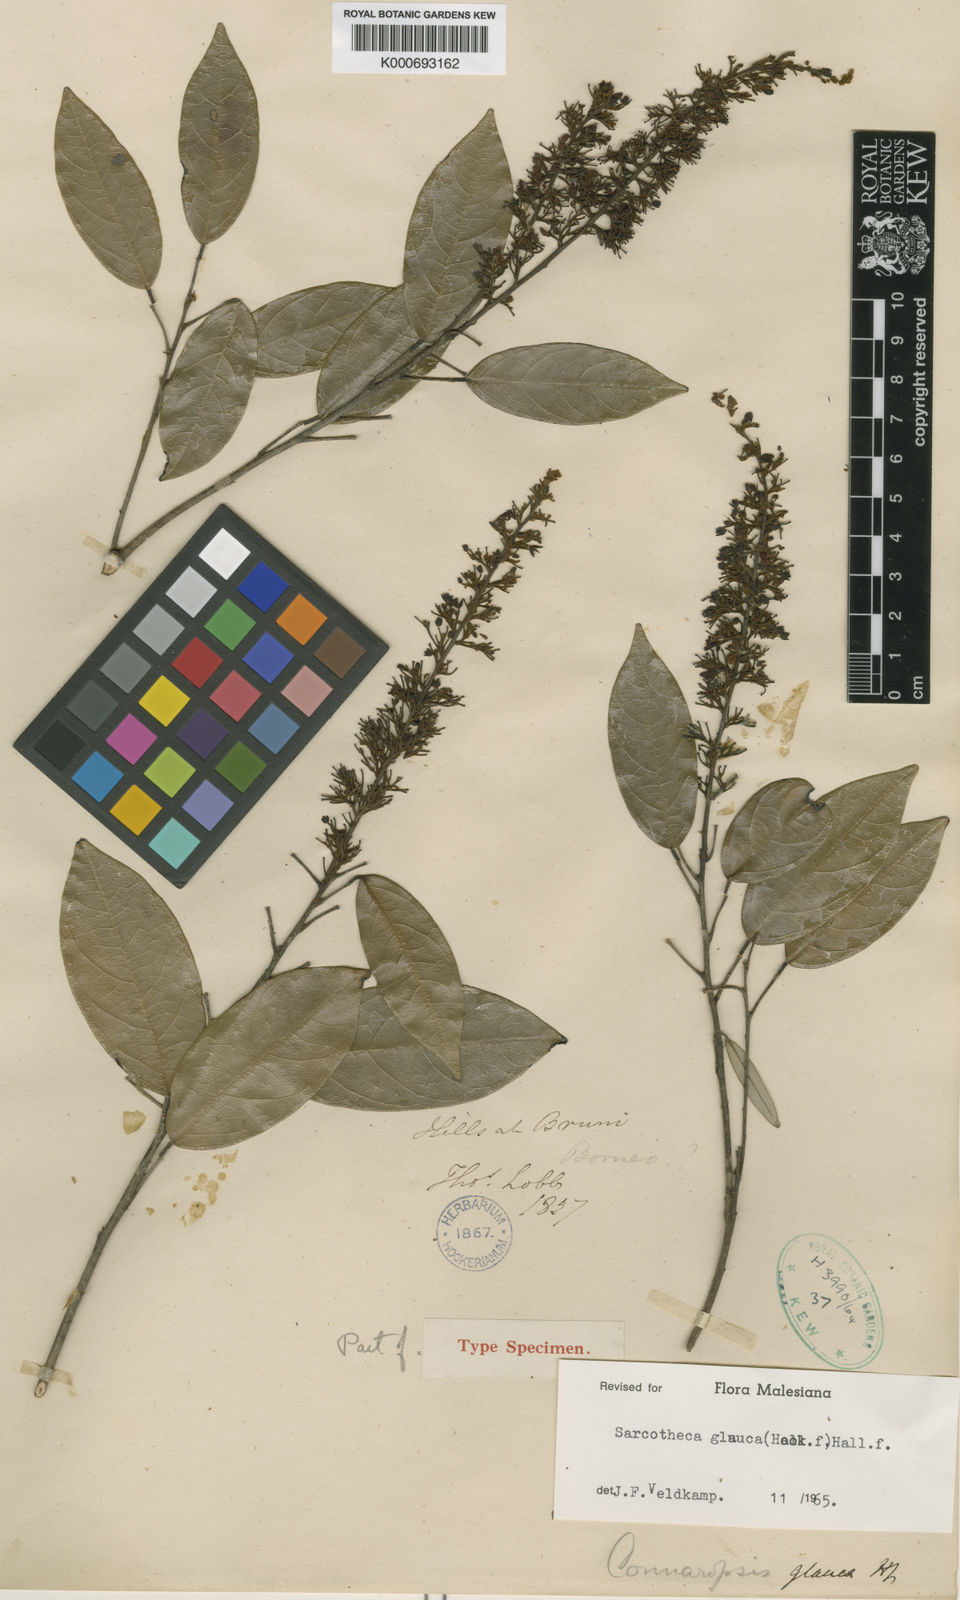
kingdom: Plantae
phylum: Tracheophyta
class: Magnoliopsida
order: Oxalidales
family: Oxalidaceae
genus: Sarcotheca
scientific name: Sarcotheca glauca
